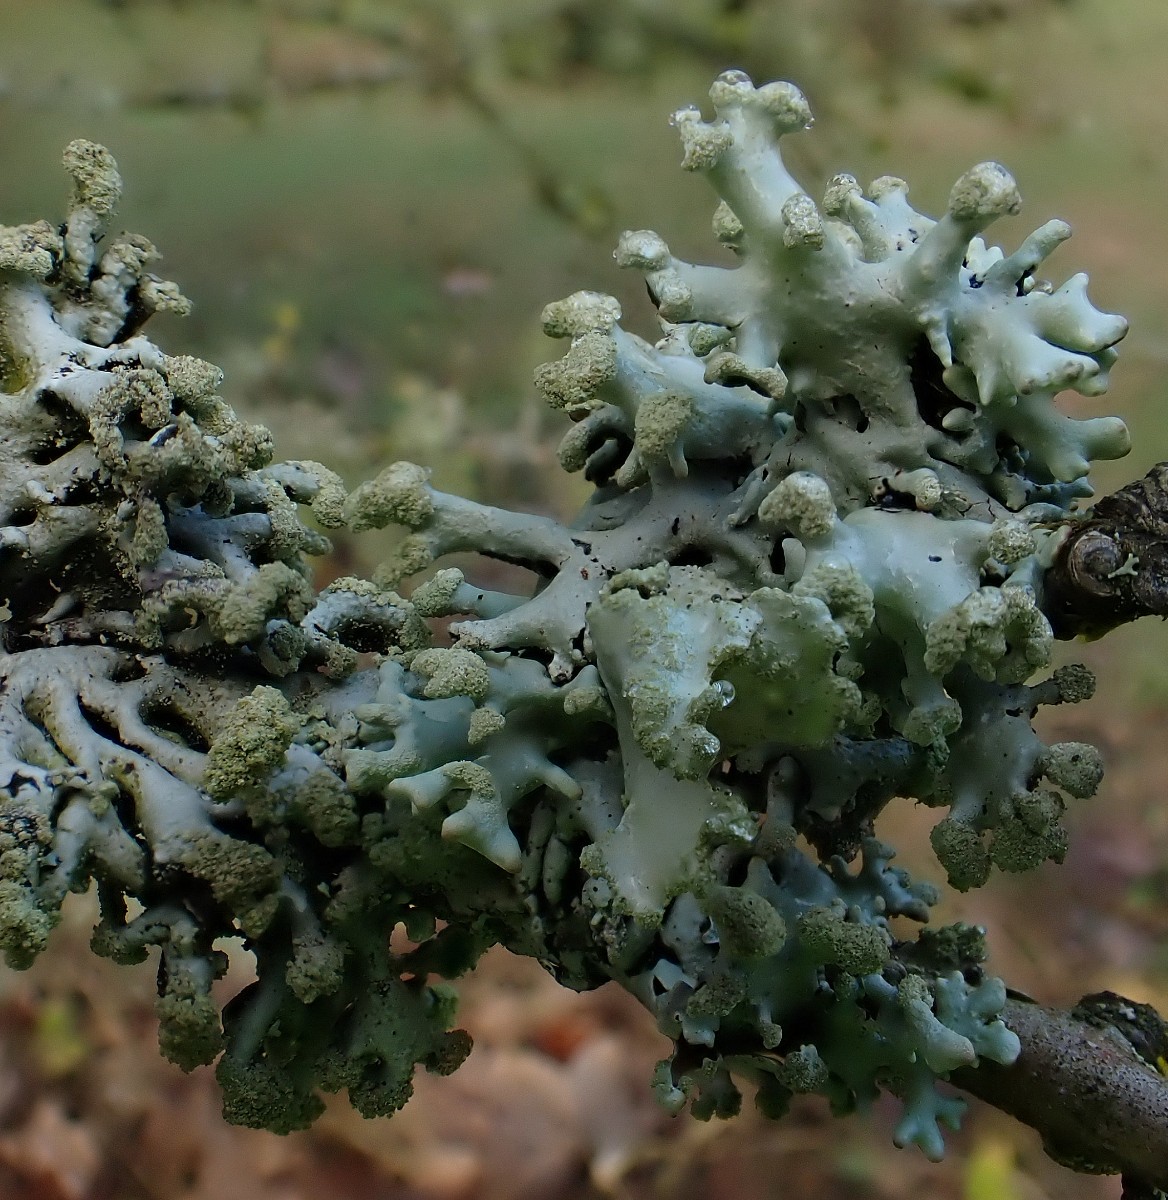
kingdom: Fungi
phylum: Ascomycota
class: Lecanoromycetes
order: Lecanorales
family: Parmeliaceae
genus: Hypogymnia
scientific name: Hypogymnia tubulosa
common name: finger-kvistlav
